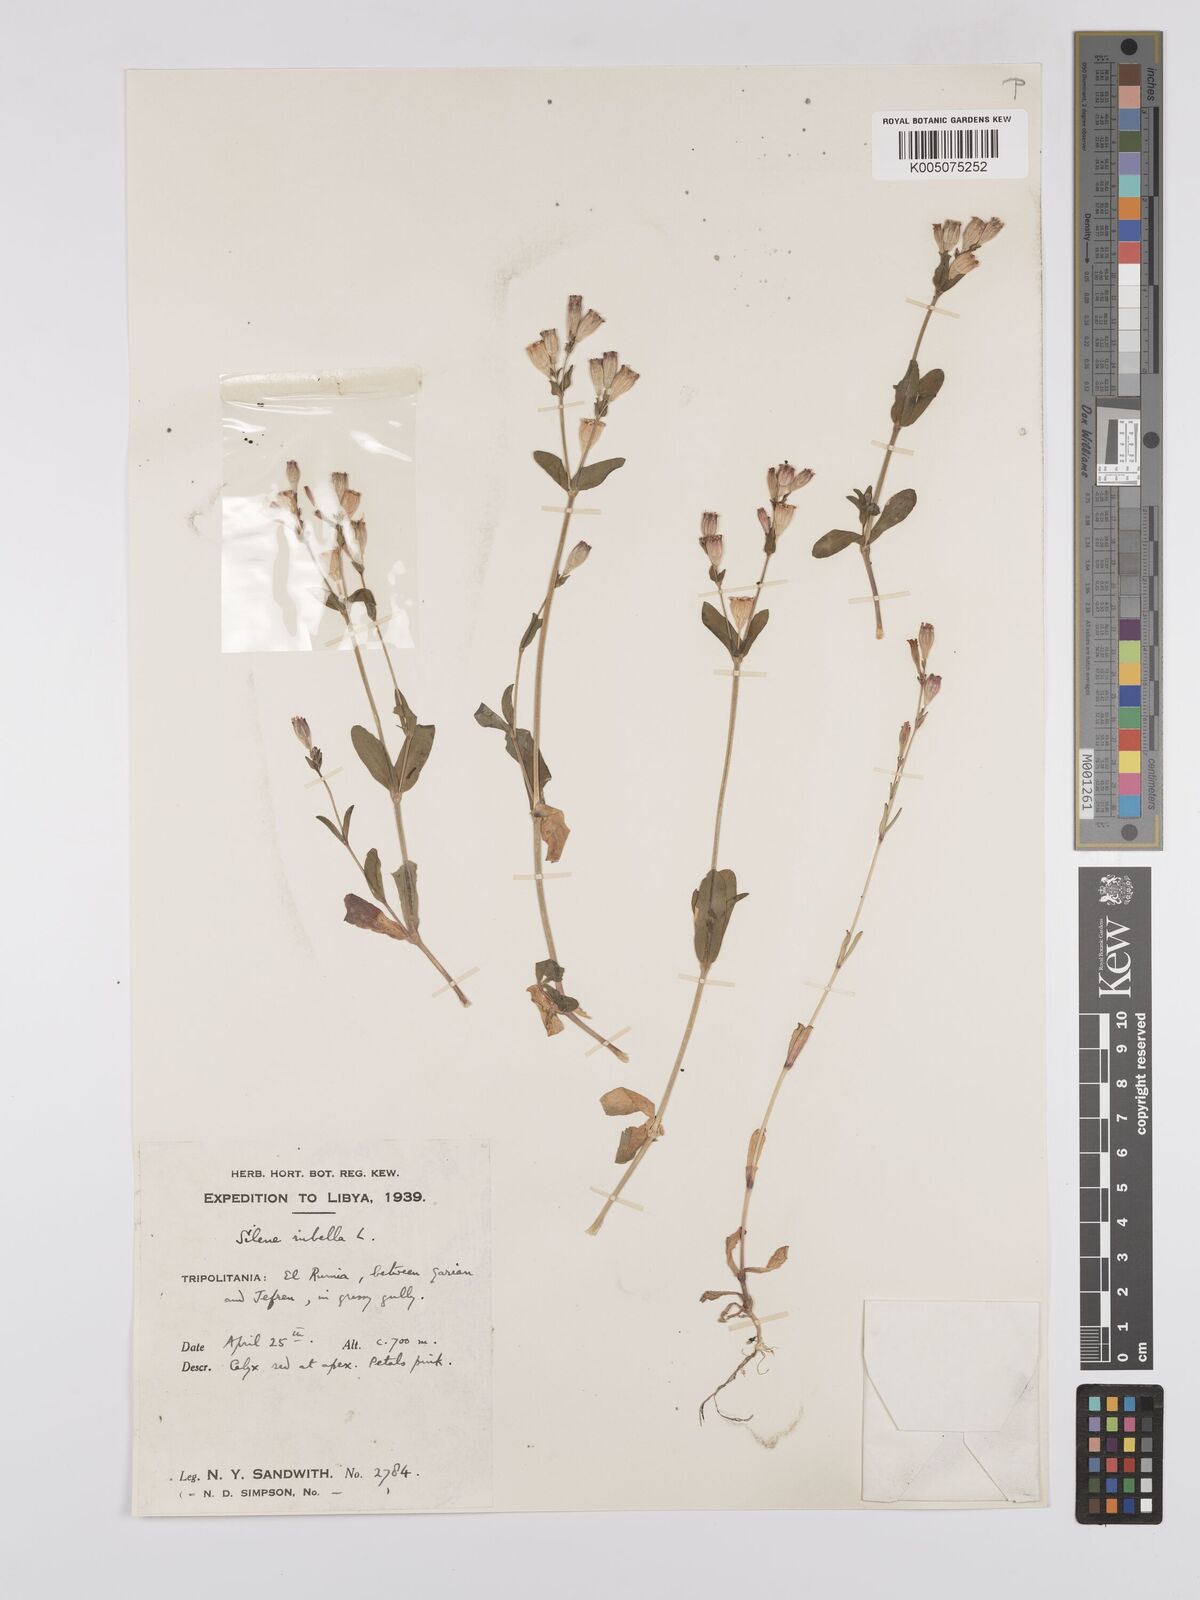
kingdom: Plantae
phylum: Tracheophyta
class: Magnoliopsida
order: Caryophyllales
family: Caryophyllaceae
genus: Silene
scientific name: Silene rubella
